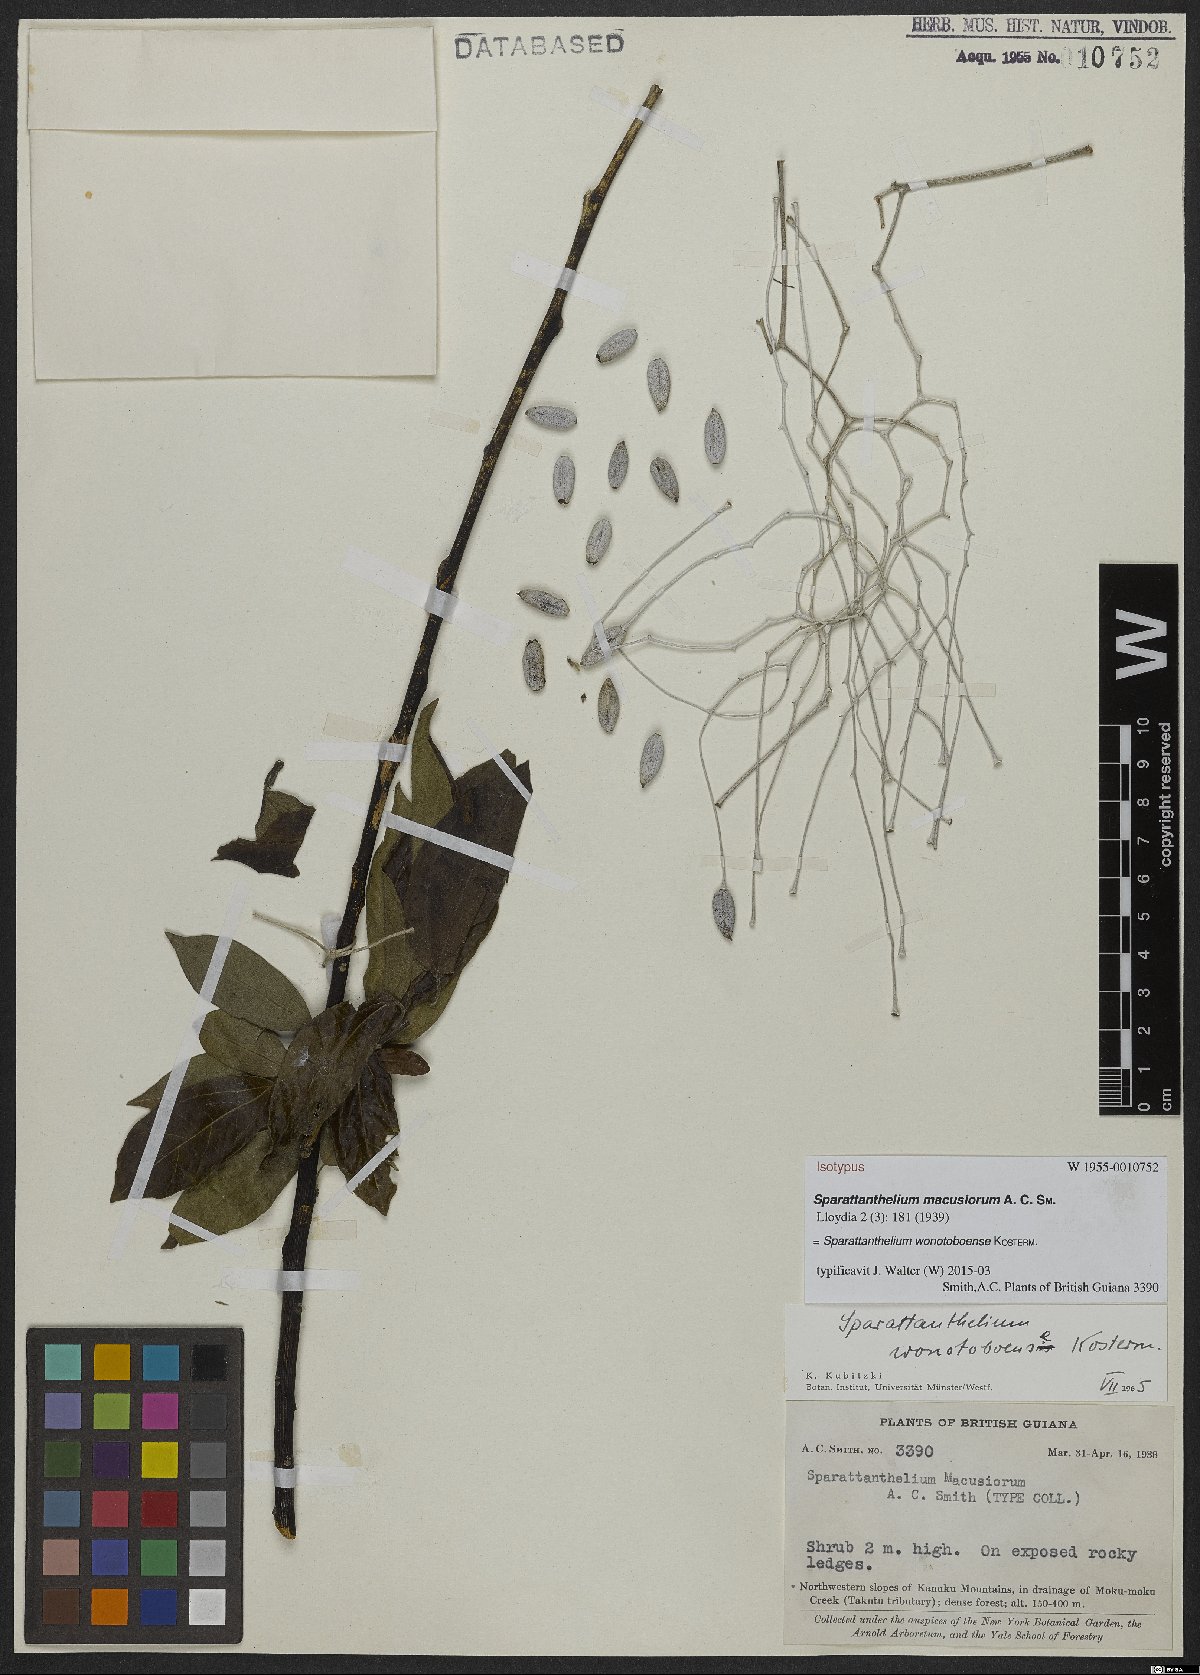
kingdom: Plantae
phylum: Tracheophyta
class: Magnoliopsida
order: Laurales
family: Hernandiaceae
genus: Sparattanthelium
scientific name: Sparattanthelium wonotoboense
